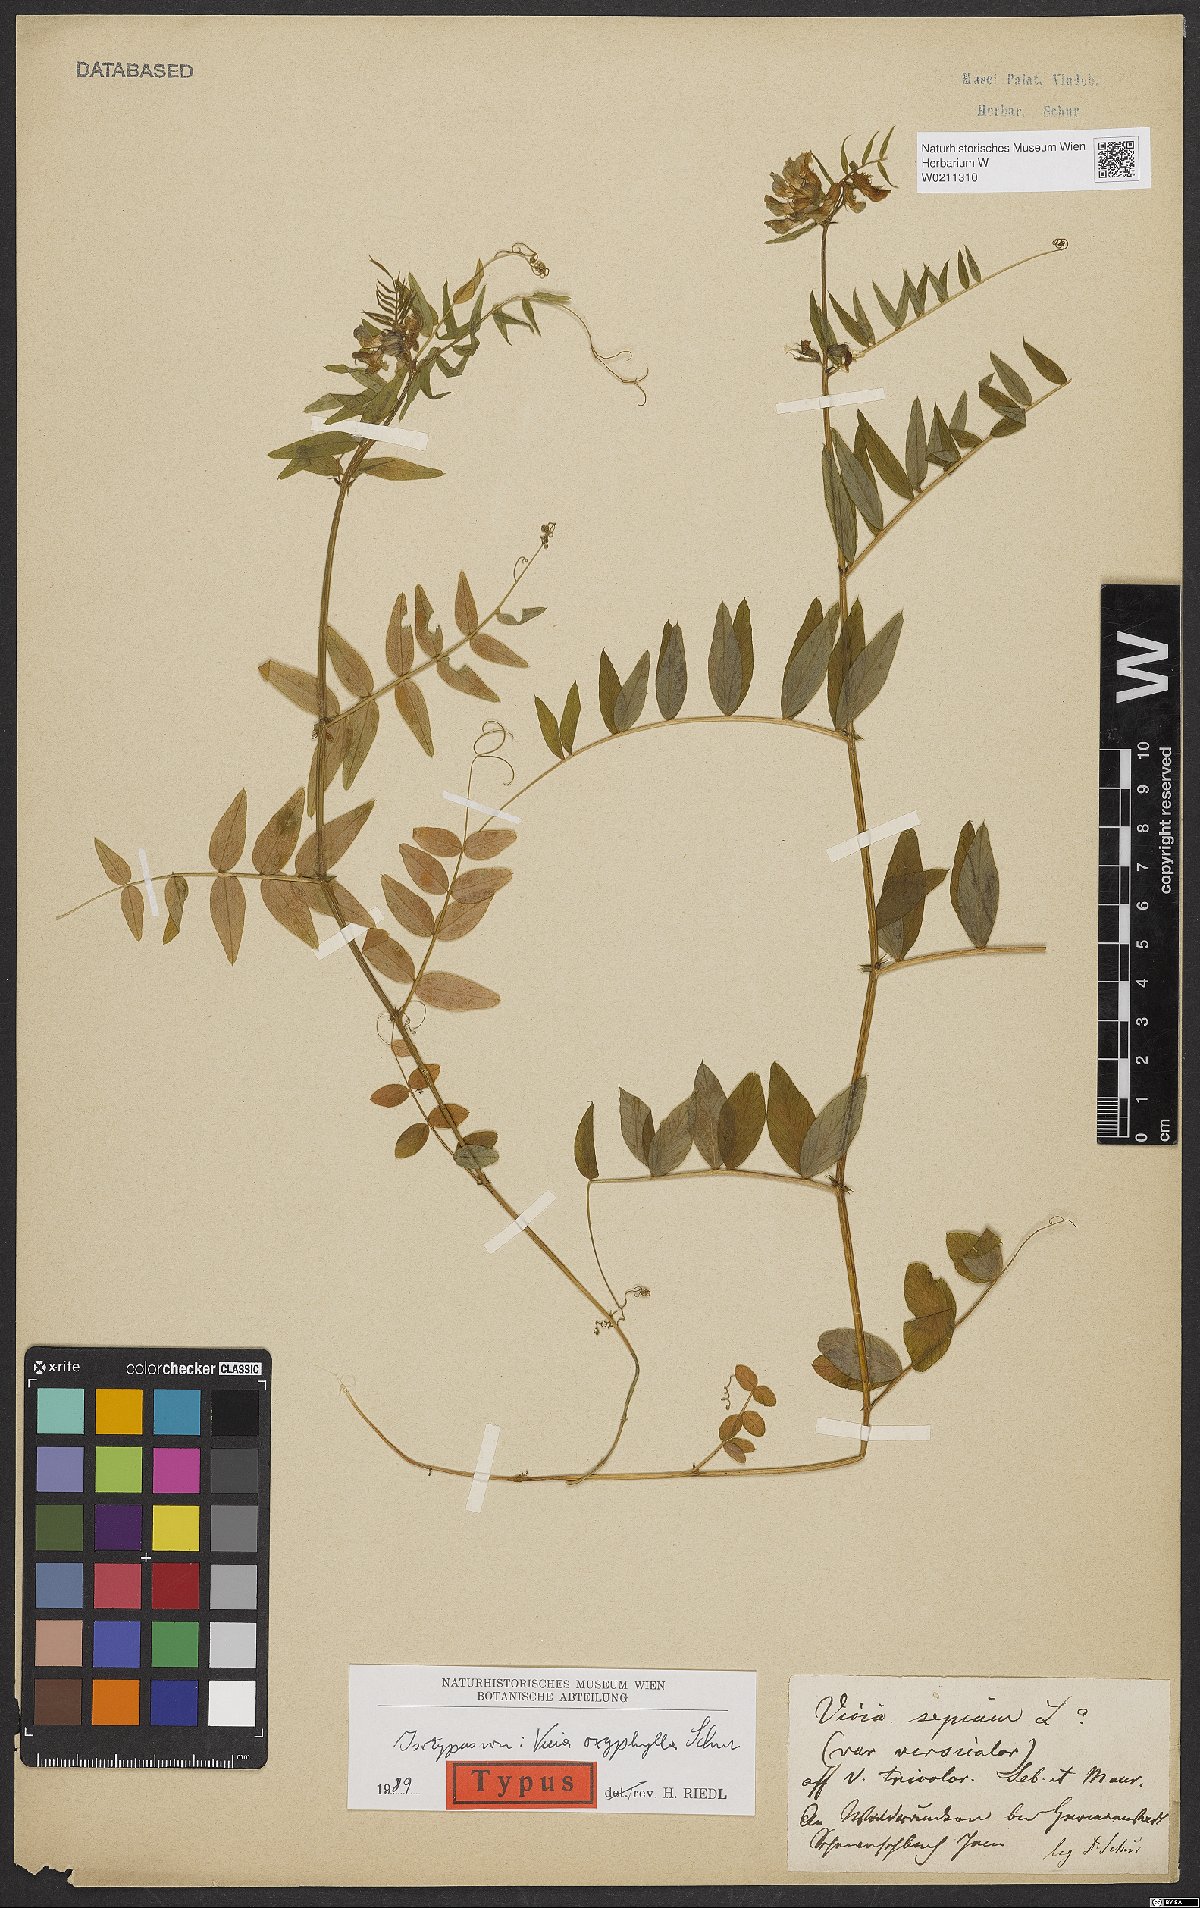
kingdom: Plantae
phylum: Tracheophyta
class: Magnoliopsida
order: Fabales
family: Fabaceae
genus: Vicia
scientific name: Vicia sepium
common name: Bush vetch
